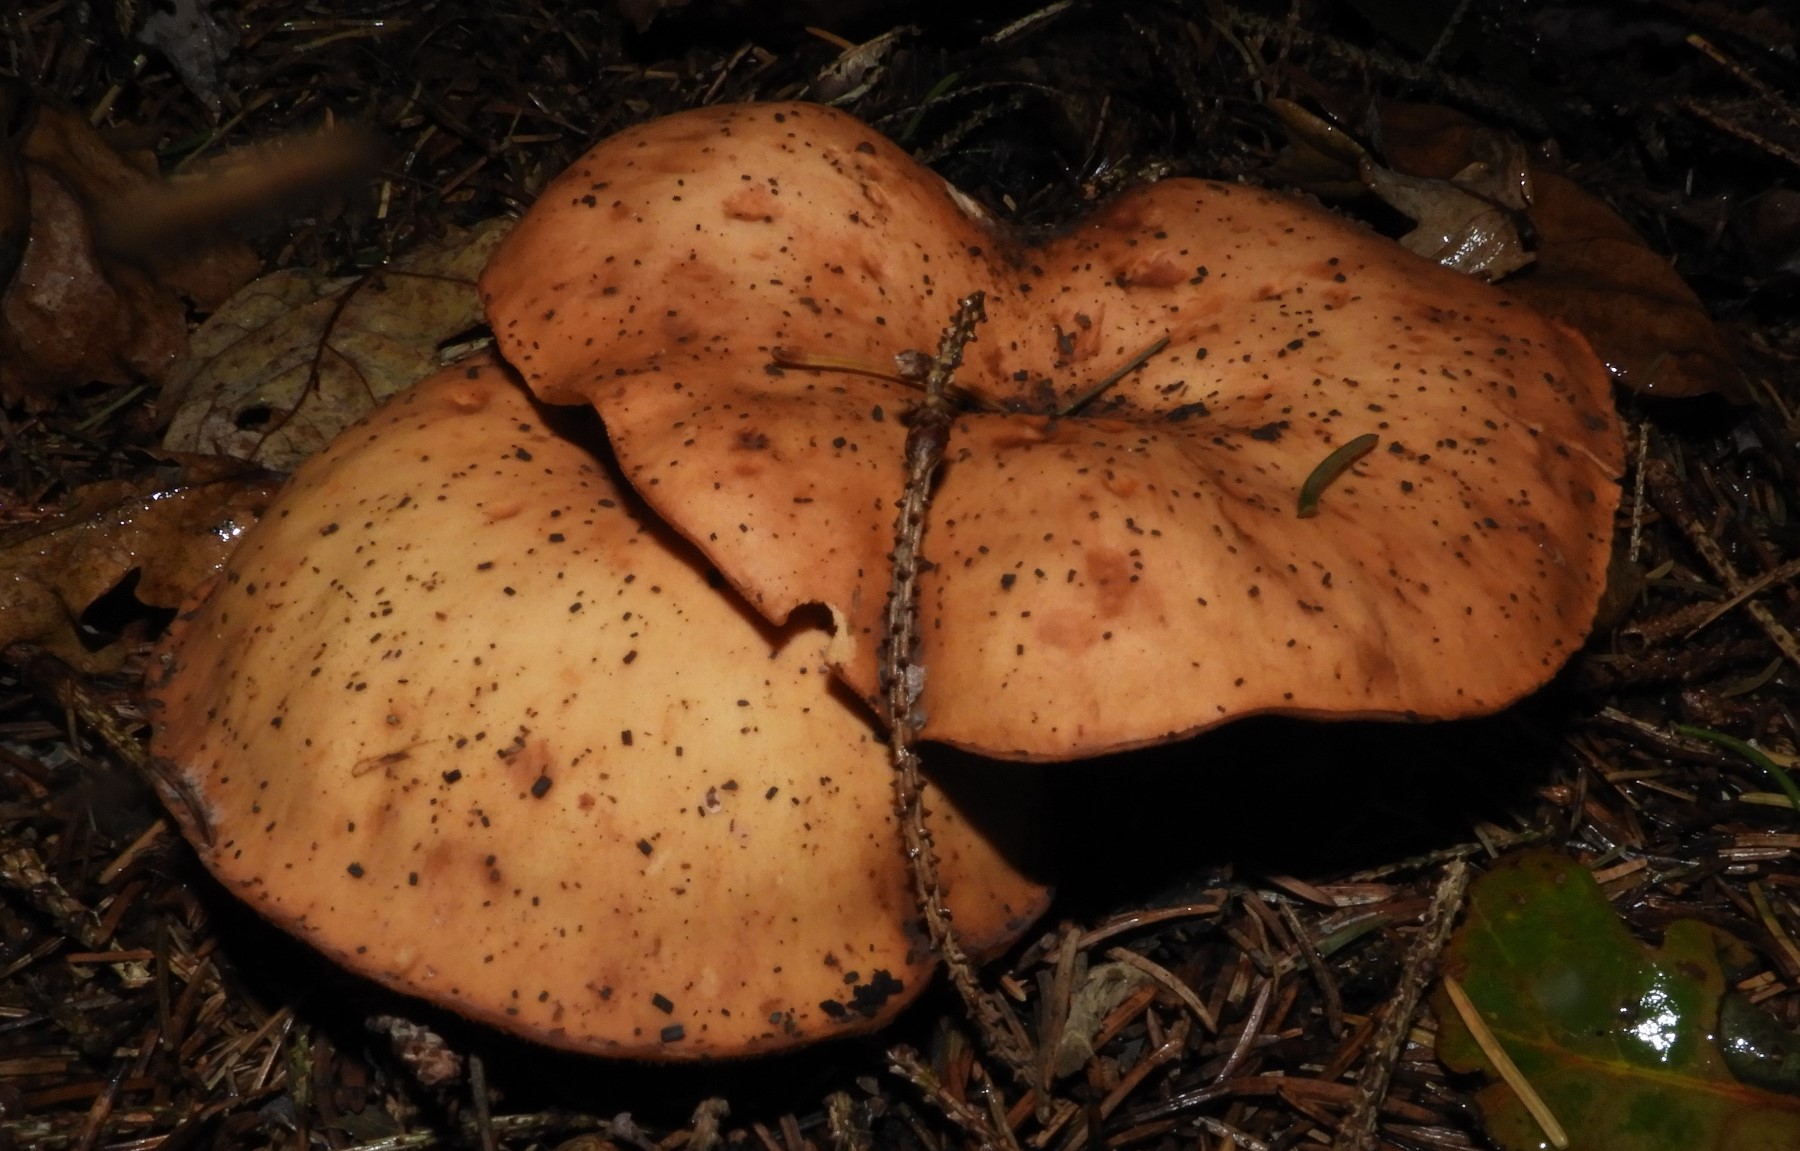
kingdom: Fungi
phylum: Basidiomycota
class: Agaricomycetes
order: Agaricales
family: Tricholomataceae
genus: Paralepista
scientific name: Paralepista flaccida
